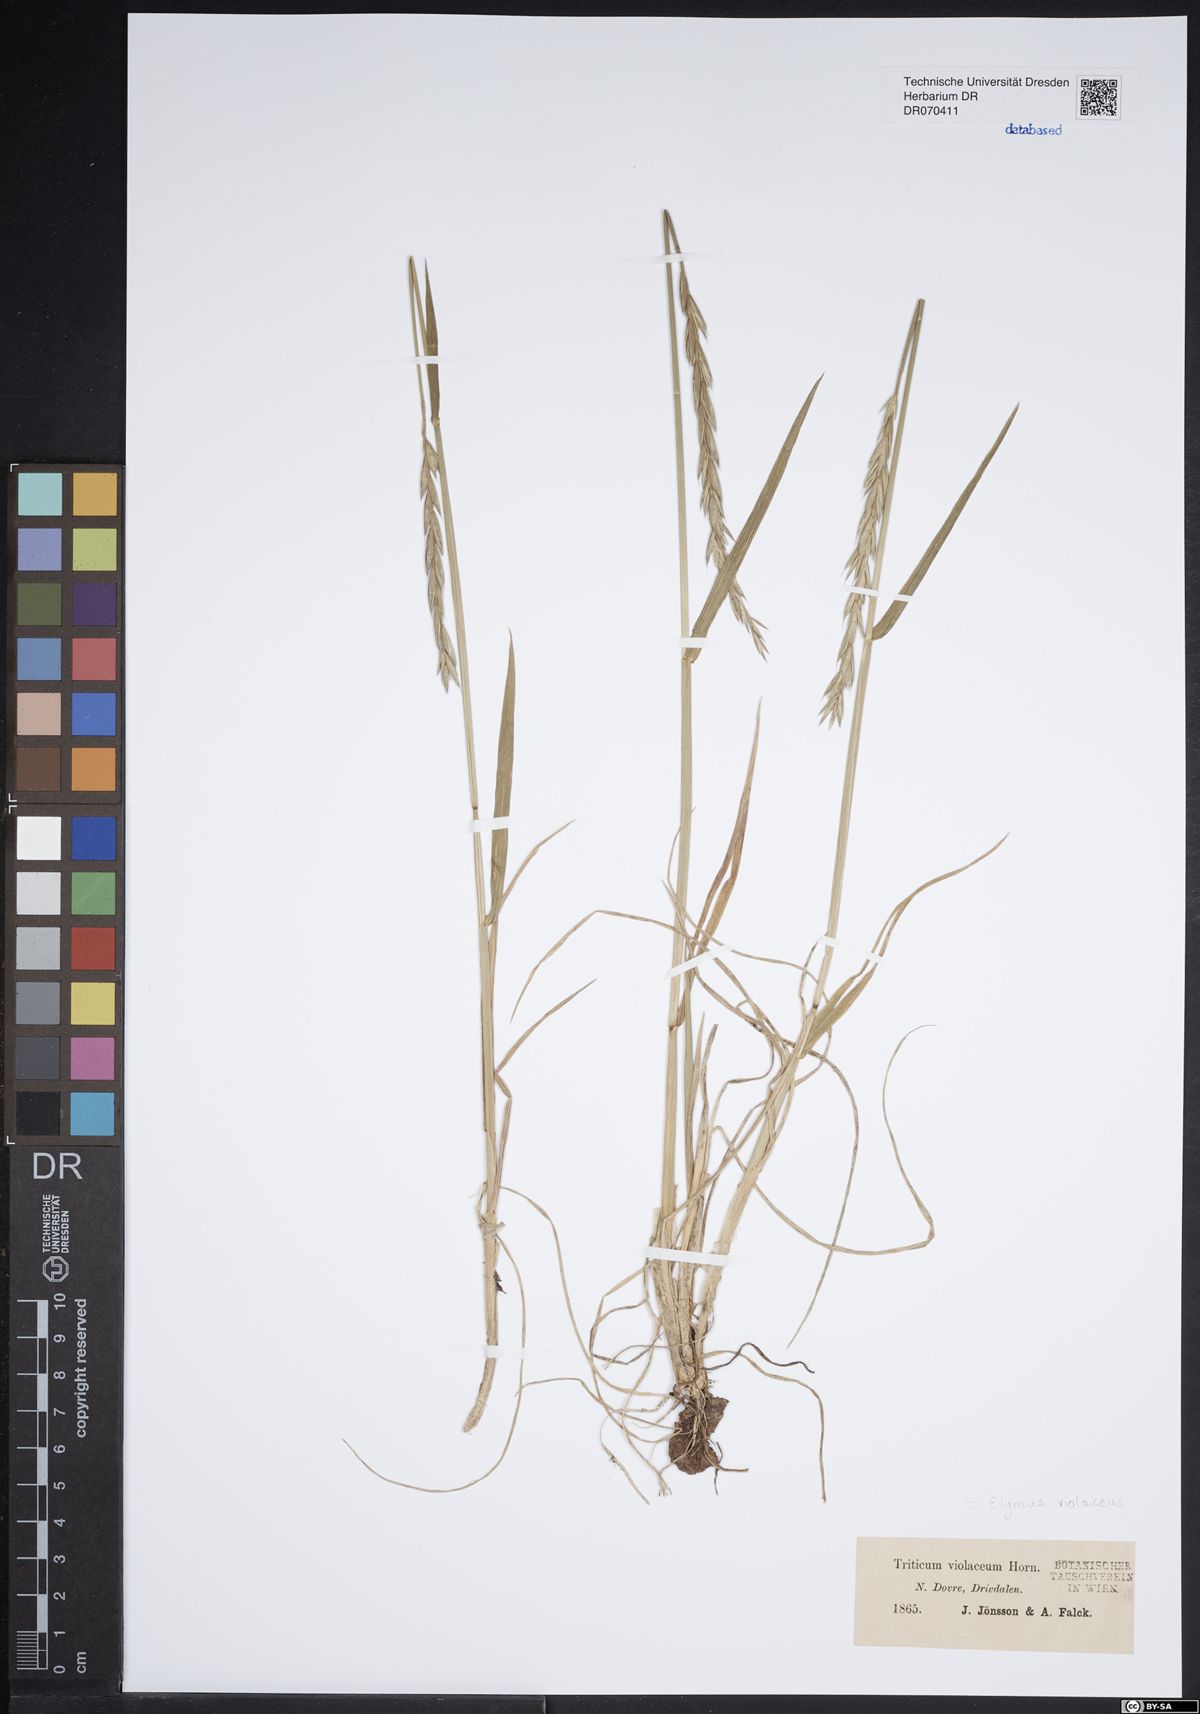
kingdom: Plantae
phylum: Tracheophyta
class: Liliopsida
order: Poales
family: Poaceae
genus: Elymus
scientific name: Elymus violaceus
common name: Arctic wheatgrass
